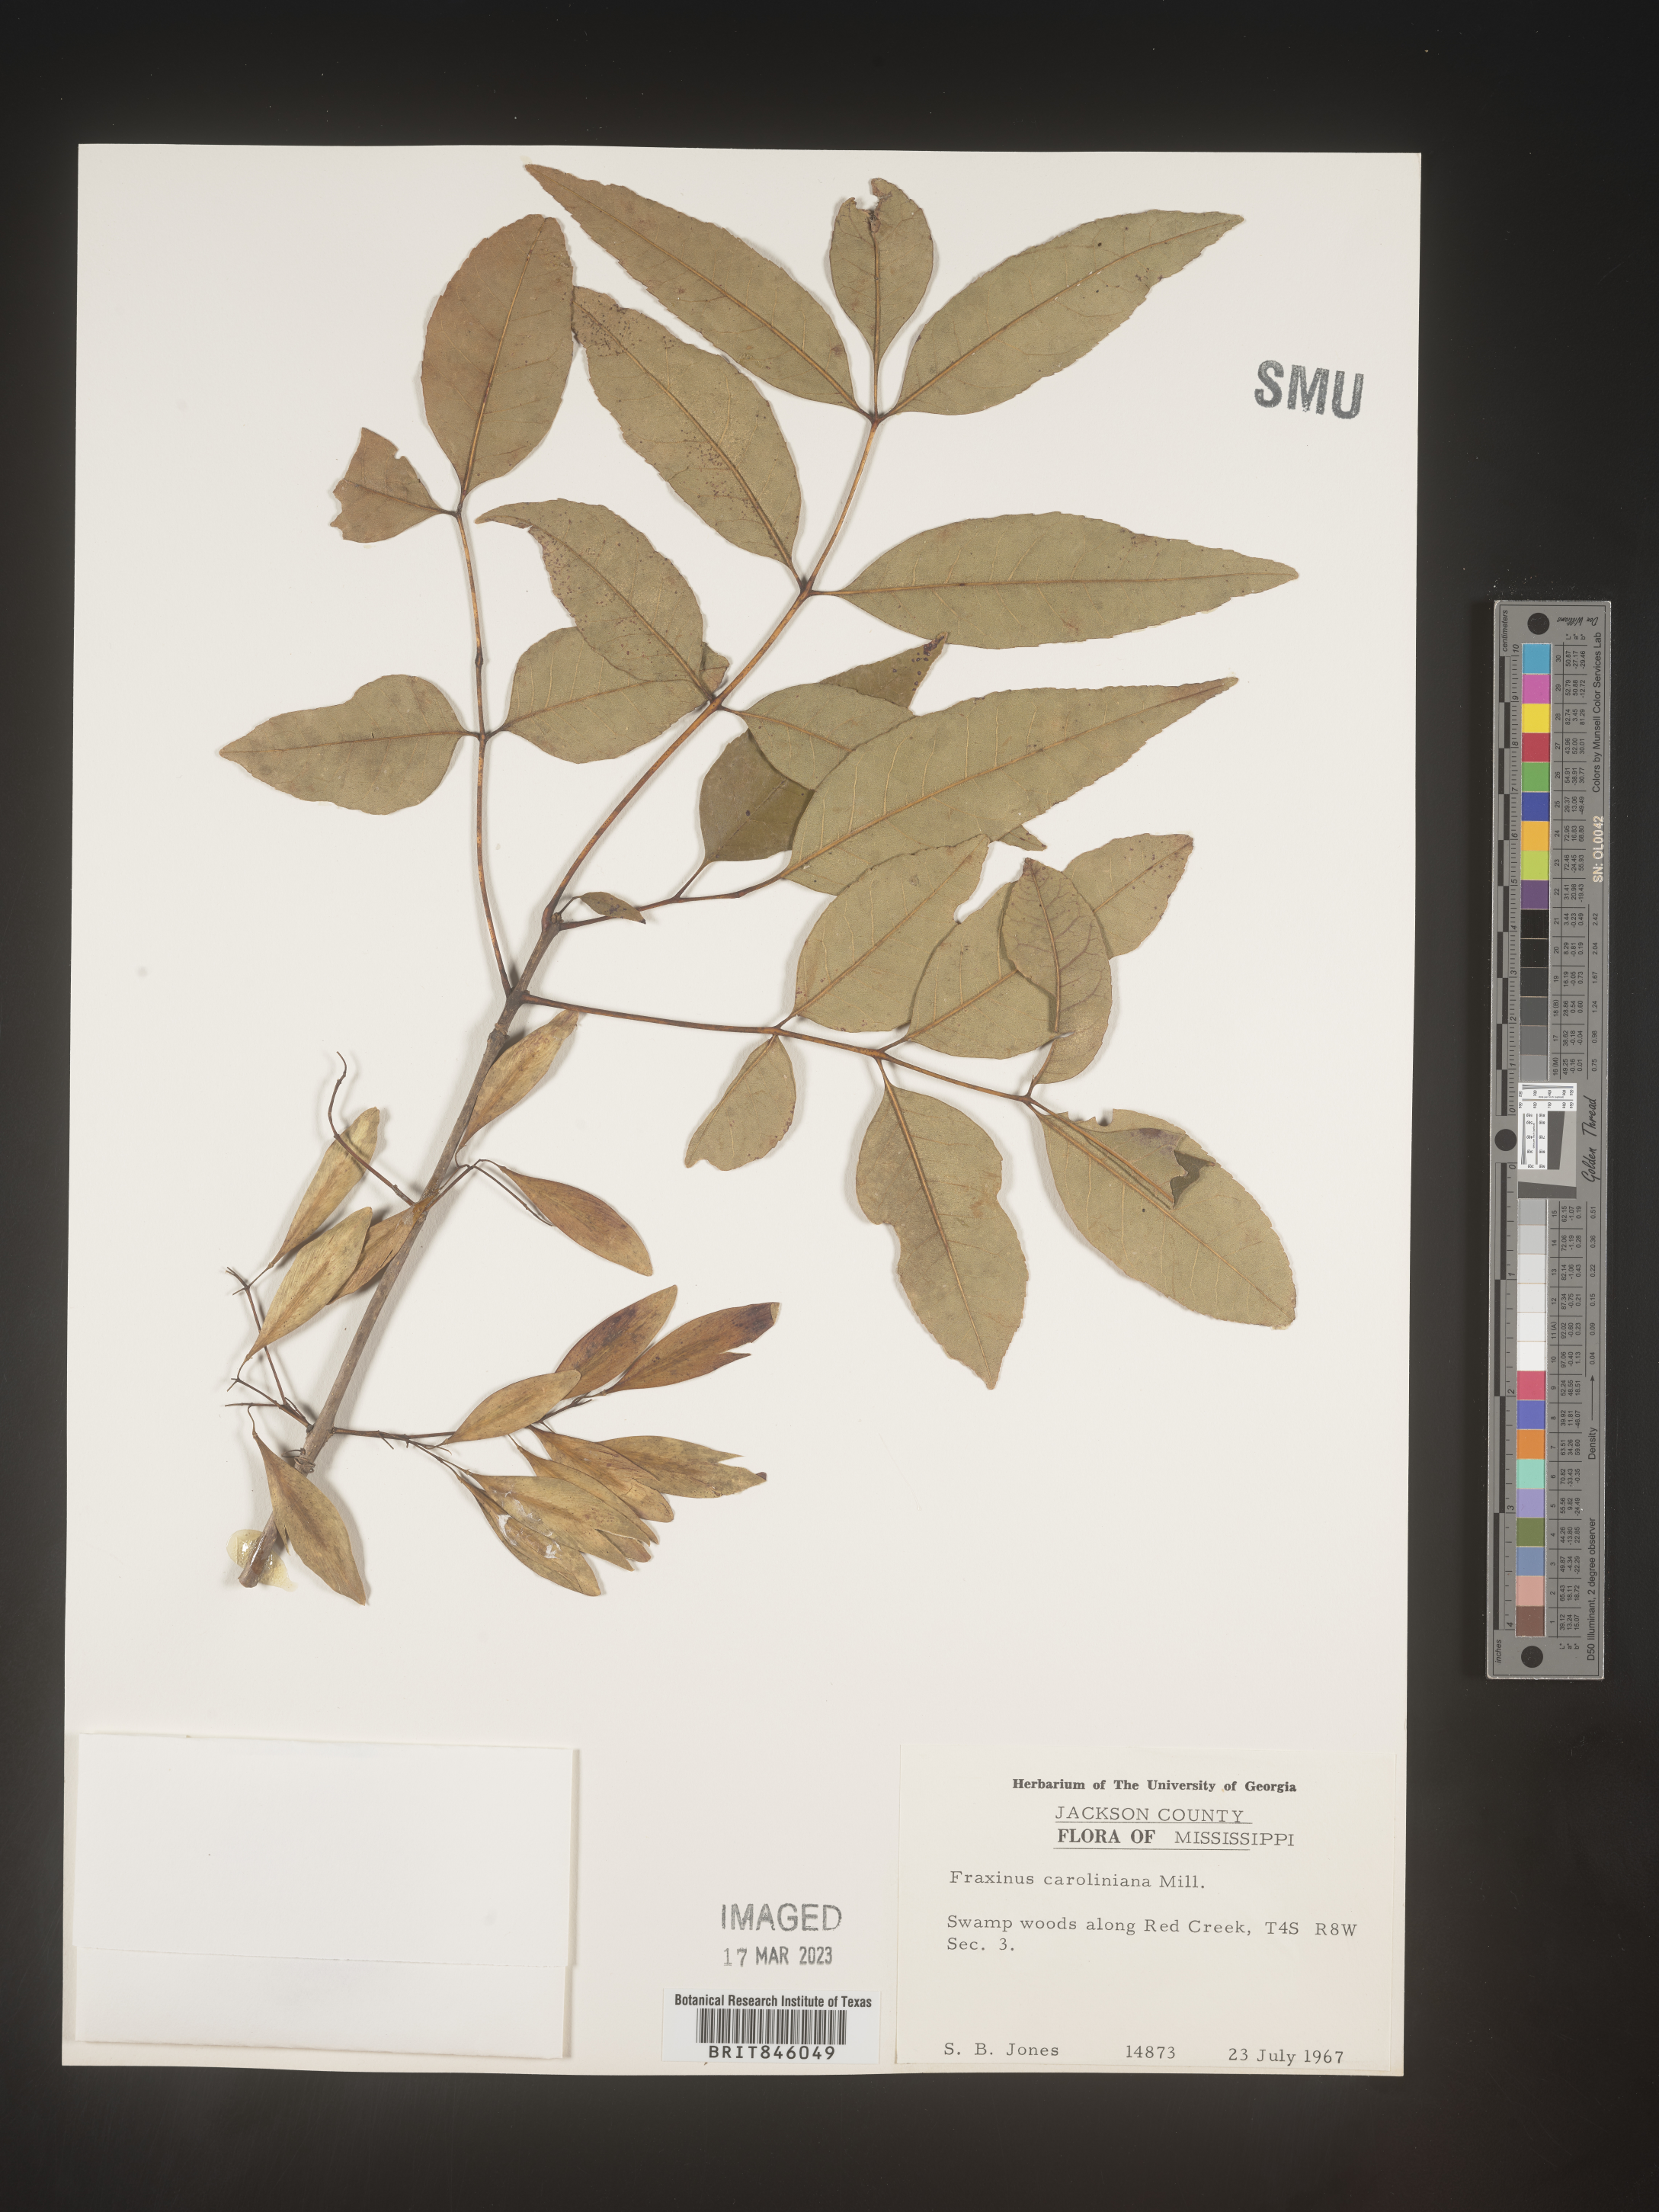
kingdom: Plantae
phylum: Tracheophyta
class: Magnoliopsida
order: Lamiales
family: Oleaceae
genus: Fraxinus
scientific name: Fraxinus caroliniana
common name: Carolina ash
